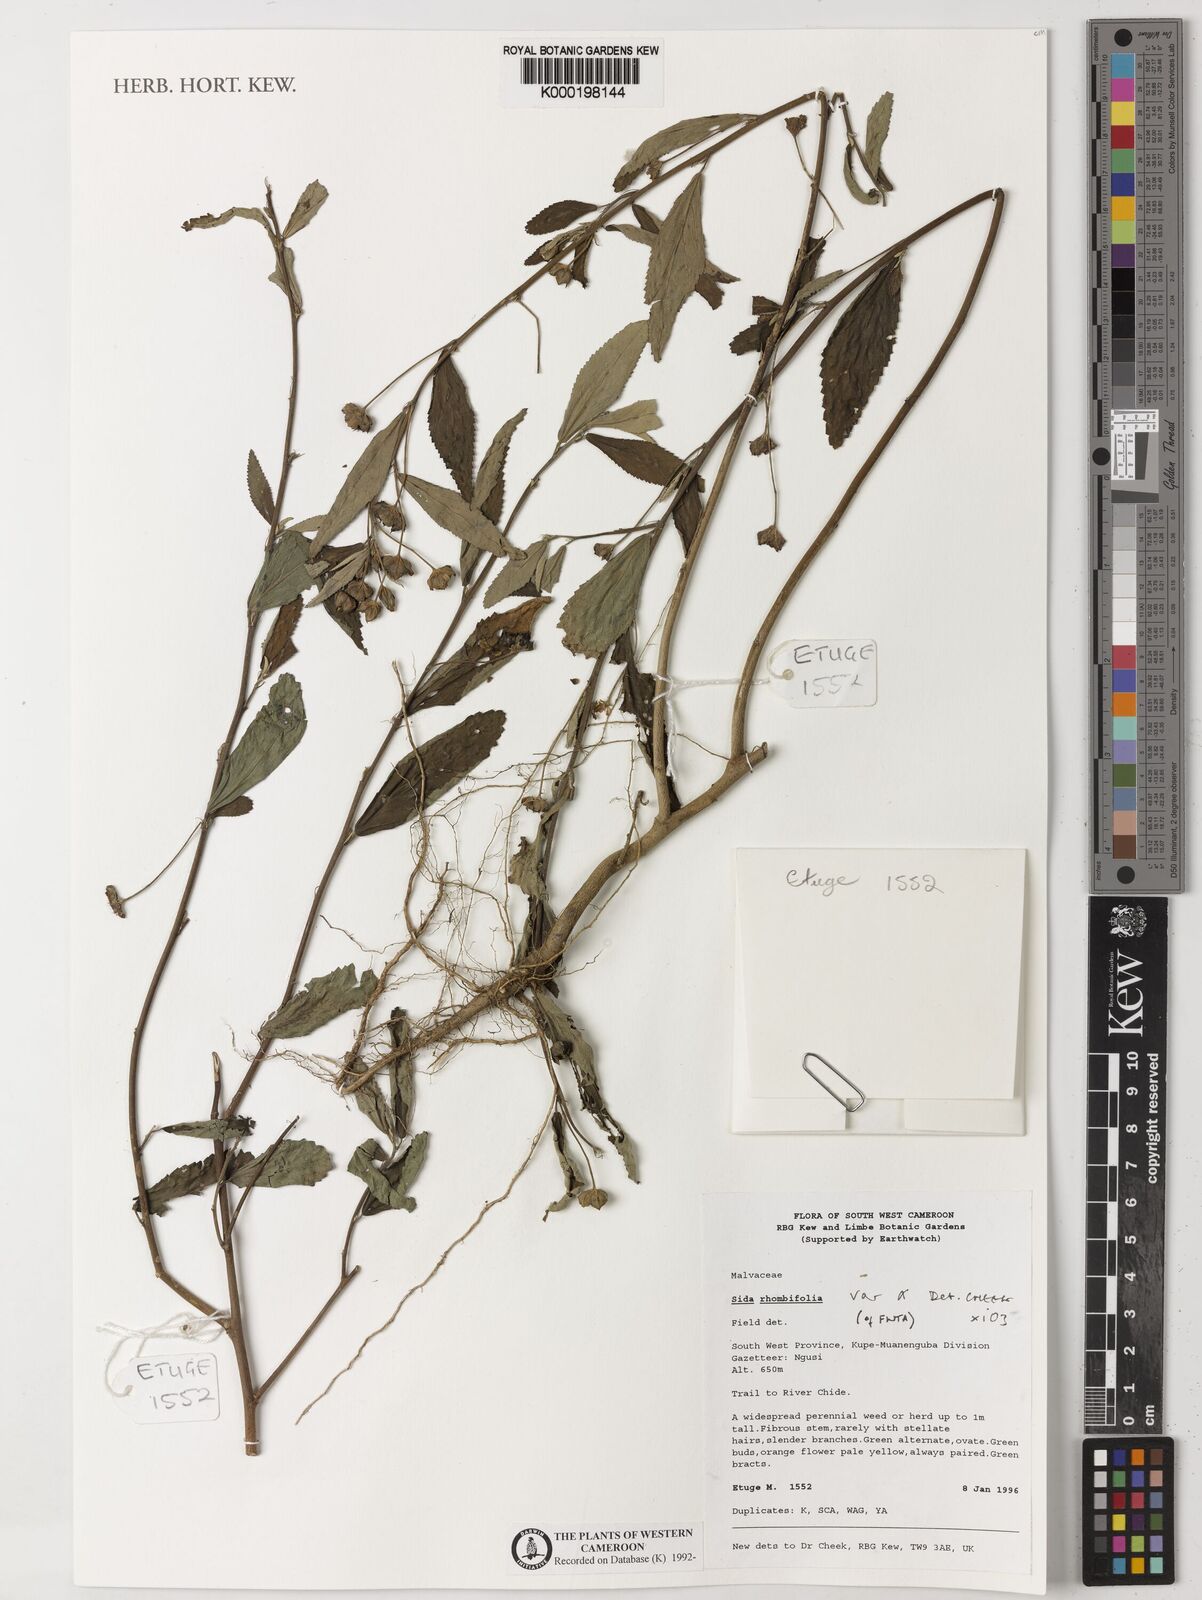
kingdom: Plantae
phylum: Tracheophyta
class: Magnoliopsida
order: Malvales
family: Malvaceae
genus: Sida
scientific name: Sida rhombifolia
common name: Queensland-hemp
